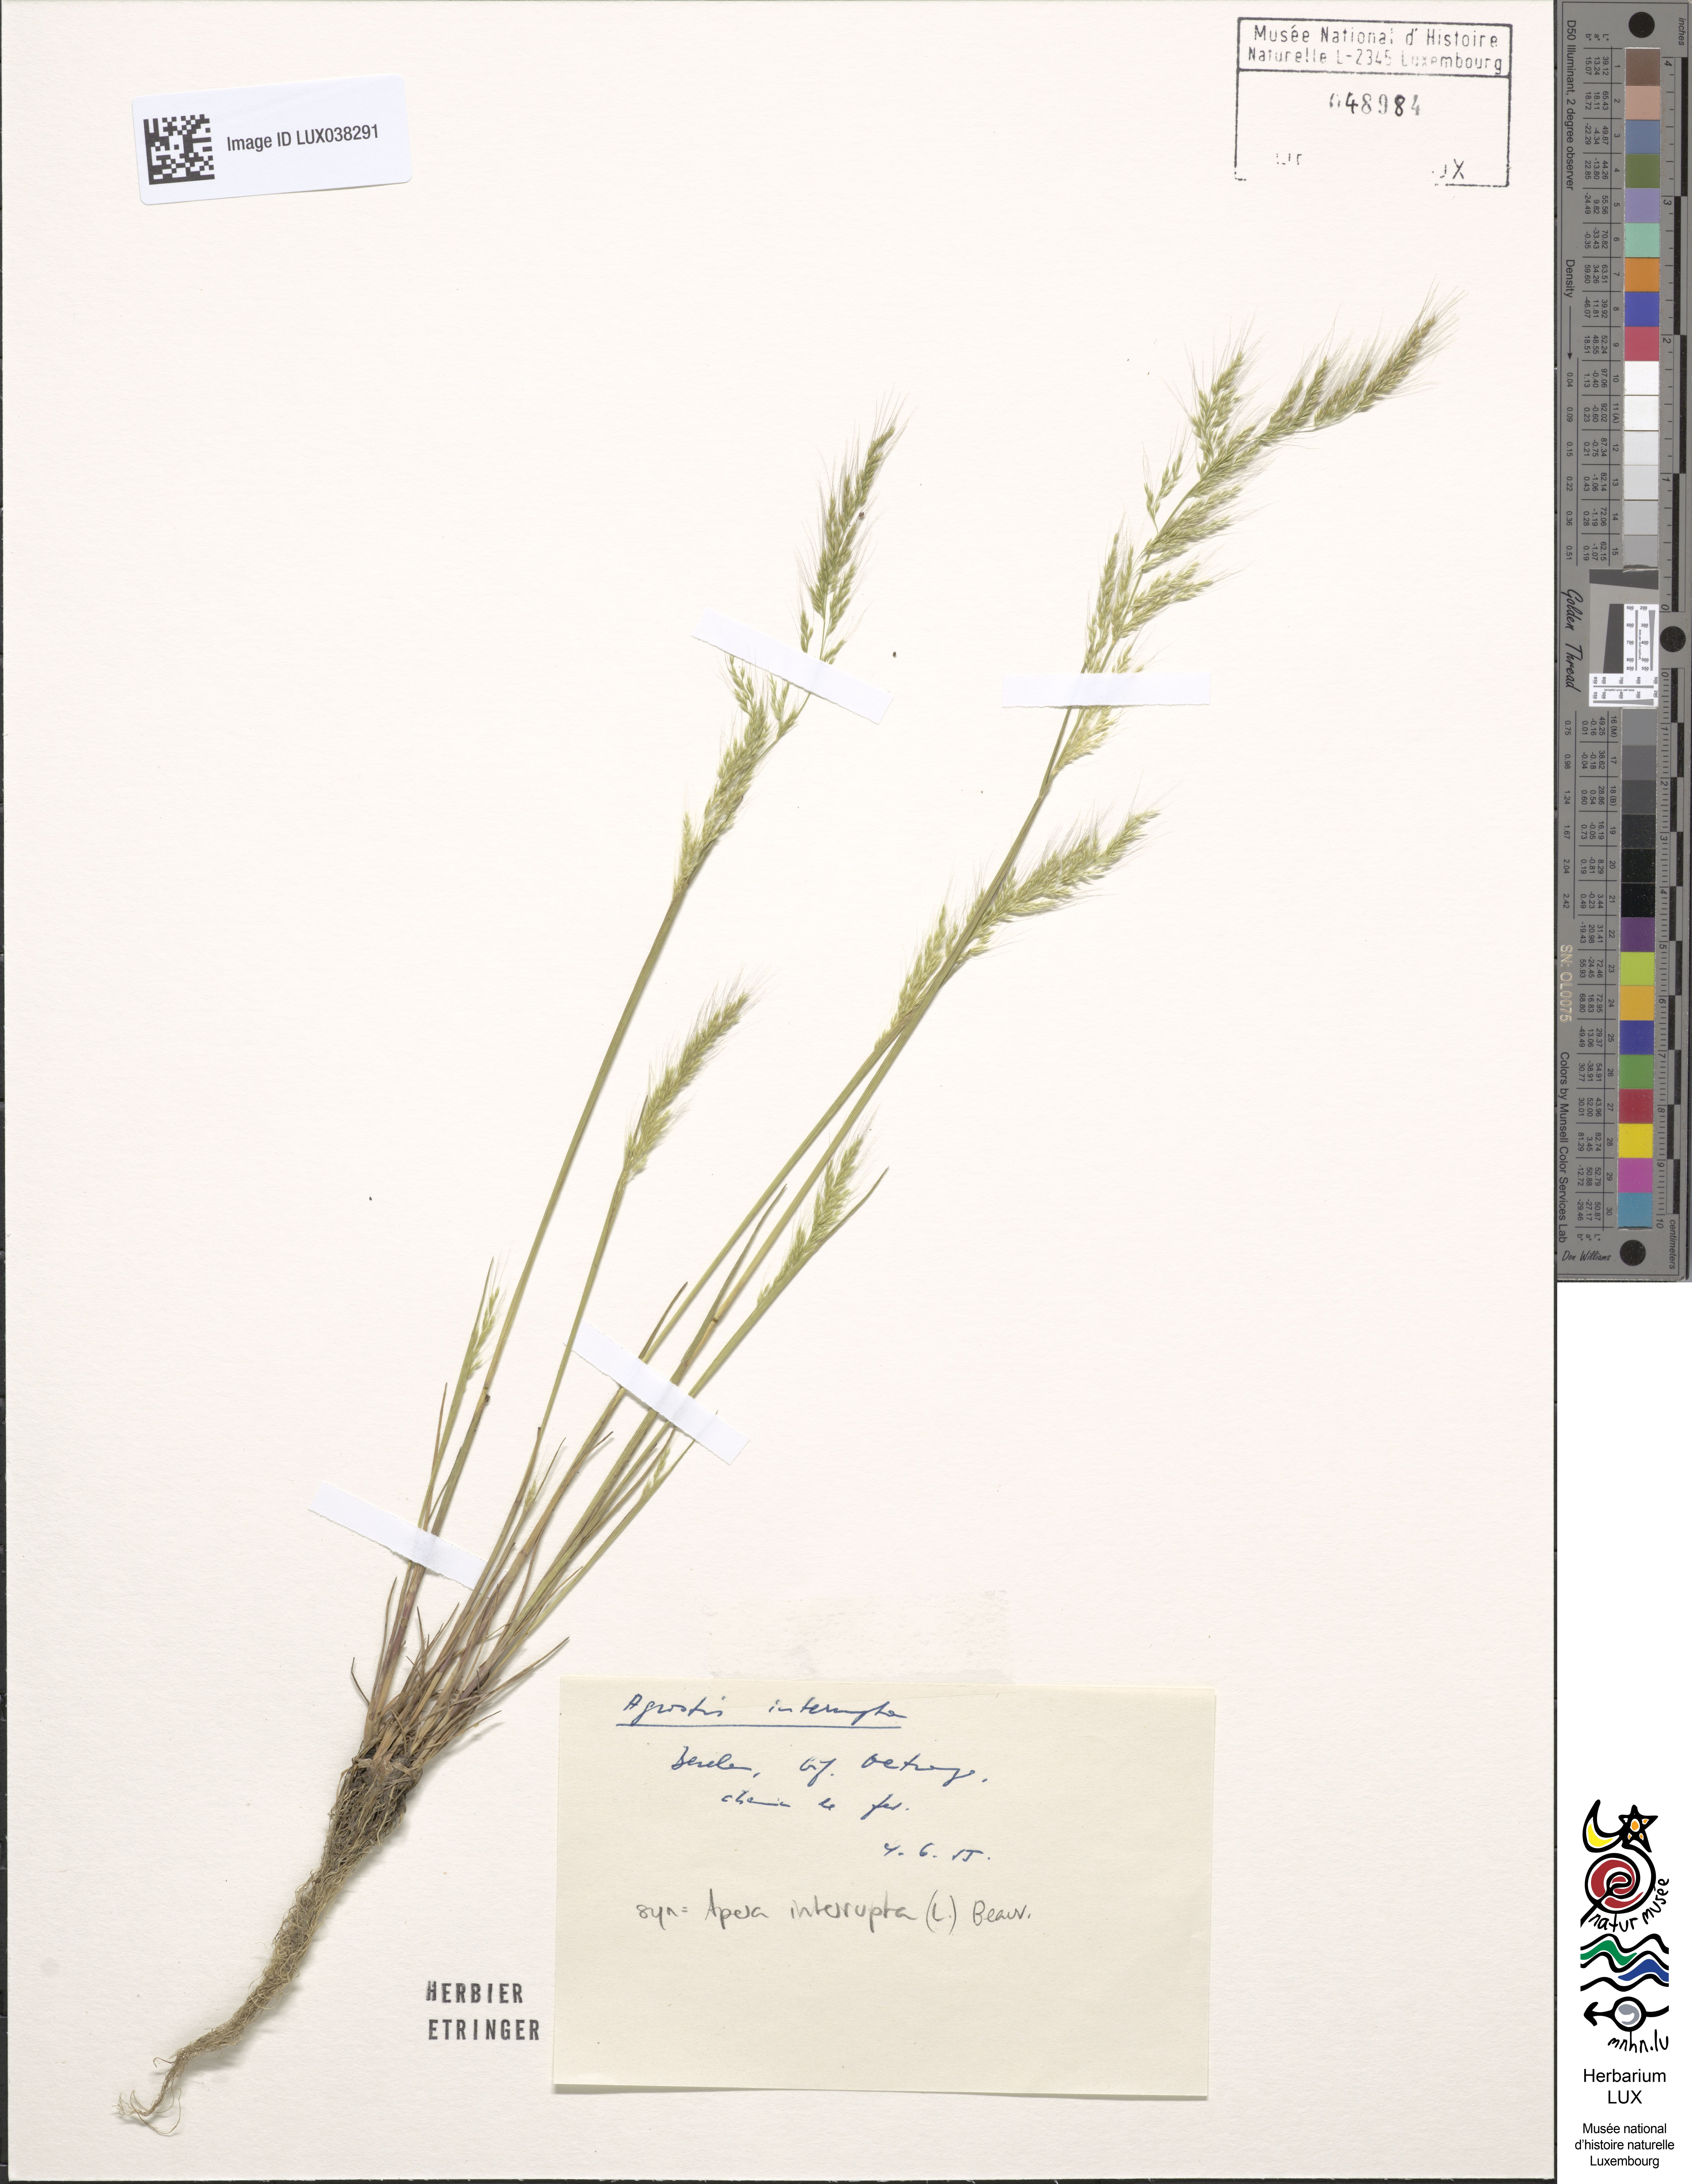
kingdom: Plantae
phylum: Tracheophyta
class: Liliopsida
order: Poales
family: Poaceae
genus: Apera
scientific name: Apera interrupta
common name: Dense silky-bent
